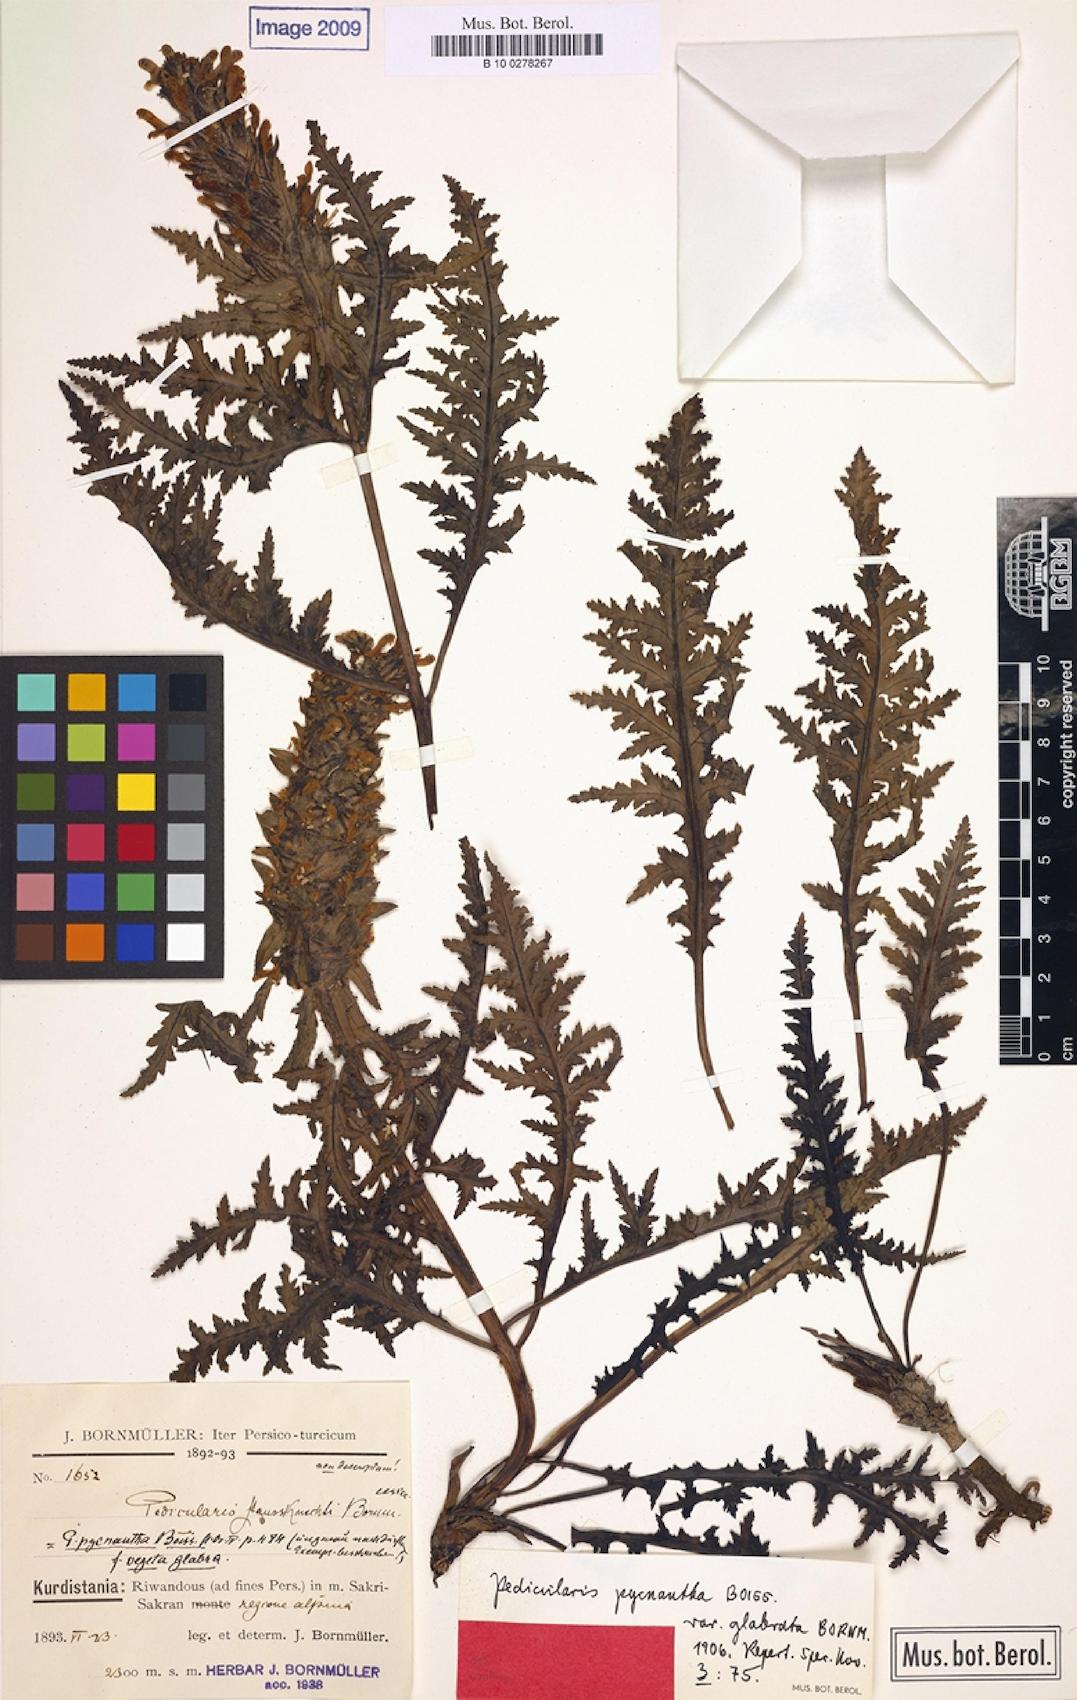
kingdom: Plantae
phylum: Tracheophyta
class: Magnoliopsida
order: Lamiales
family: Orobanchaceae
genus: Pedicularis
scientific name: Pedicularis pycnantha
